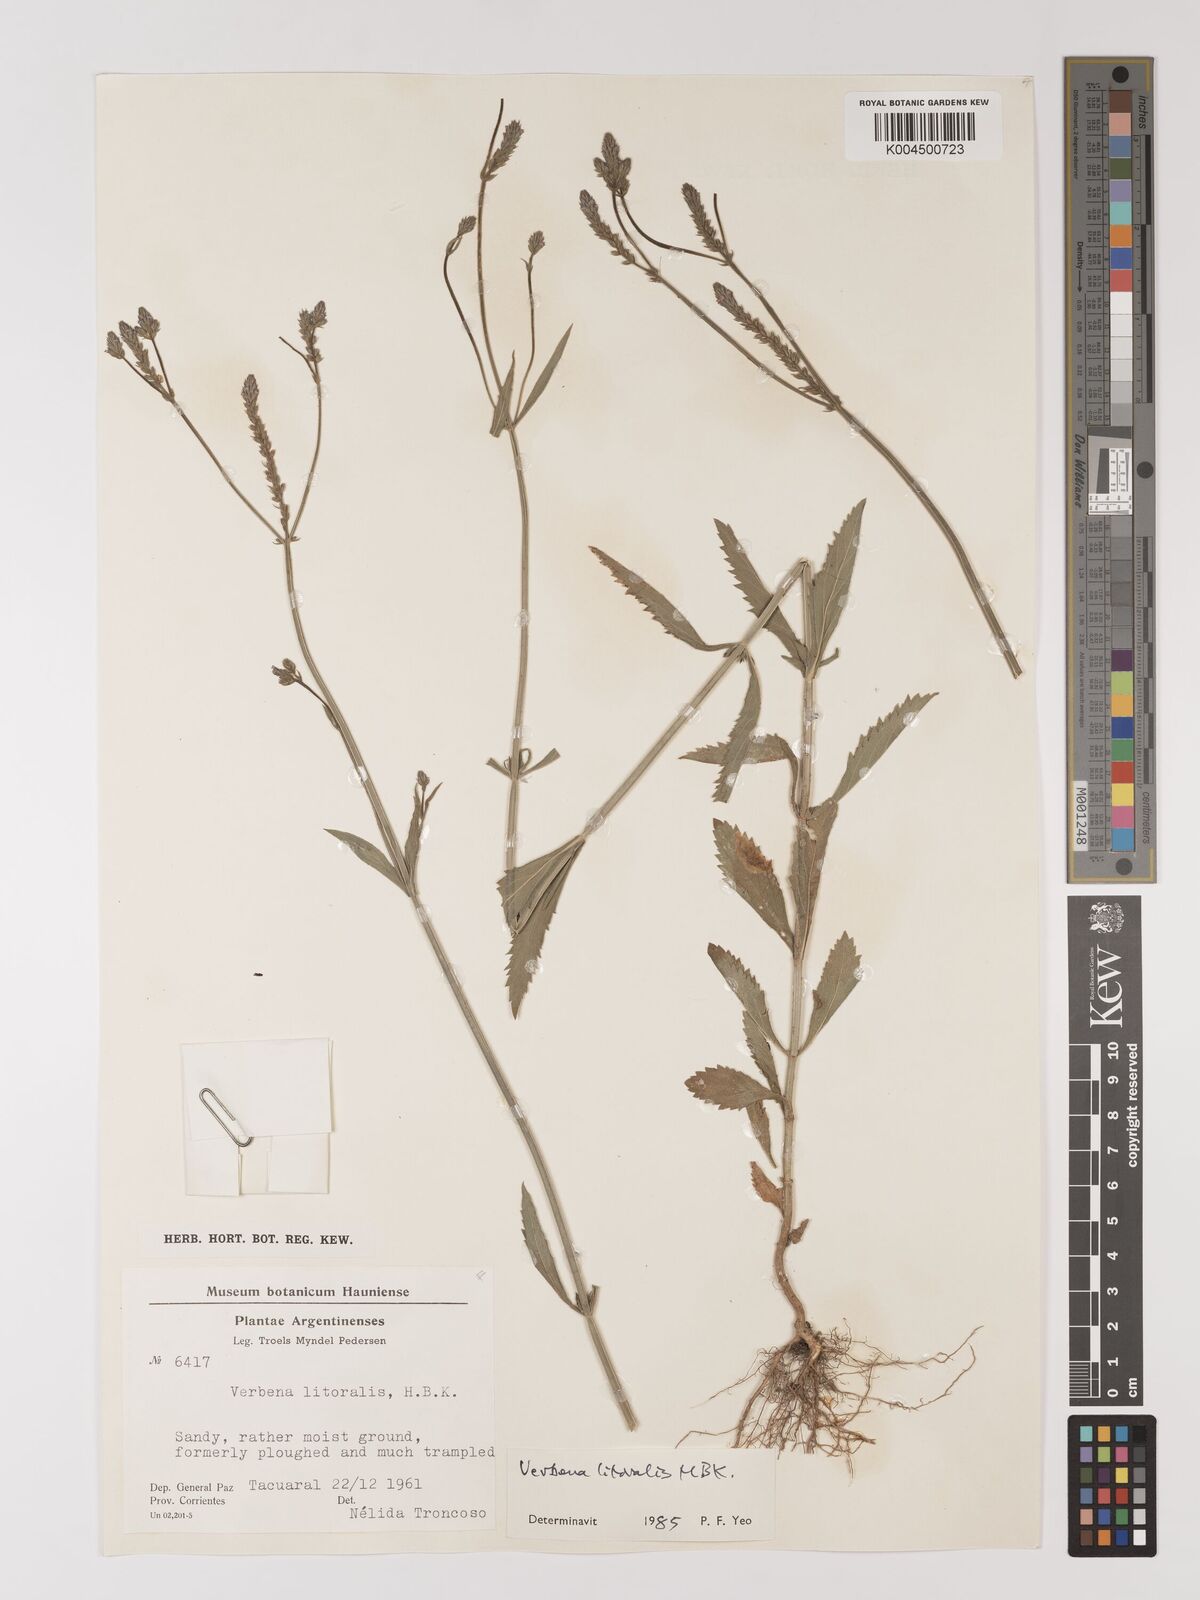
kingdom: Plantae
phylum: Tracheophyta
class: Magnoliopsida
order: Lamiales
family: Verbenaceae
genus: Verbena
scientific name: Verbena litoralis
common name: Seashore vervain
